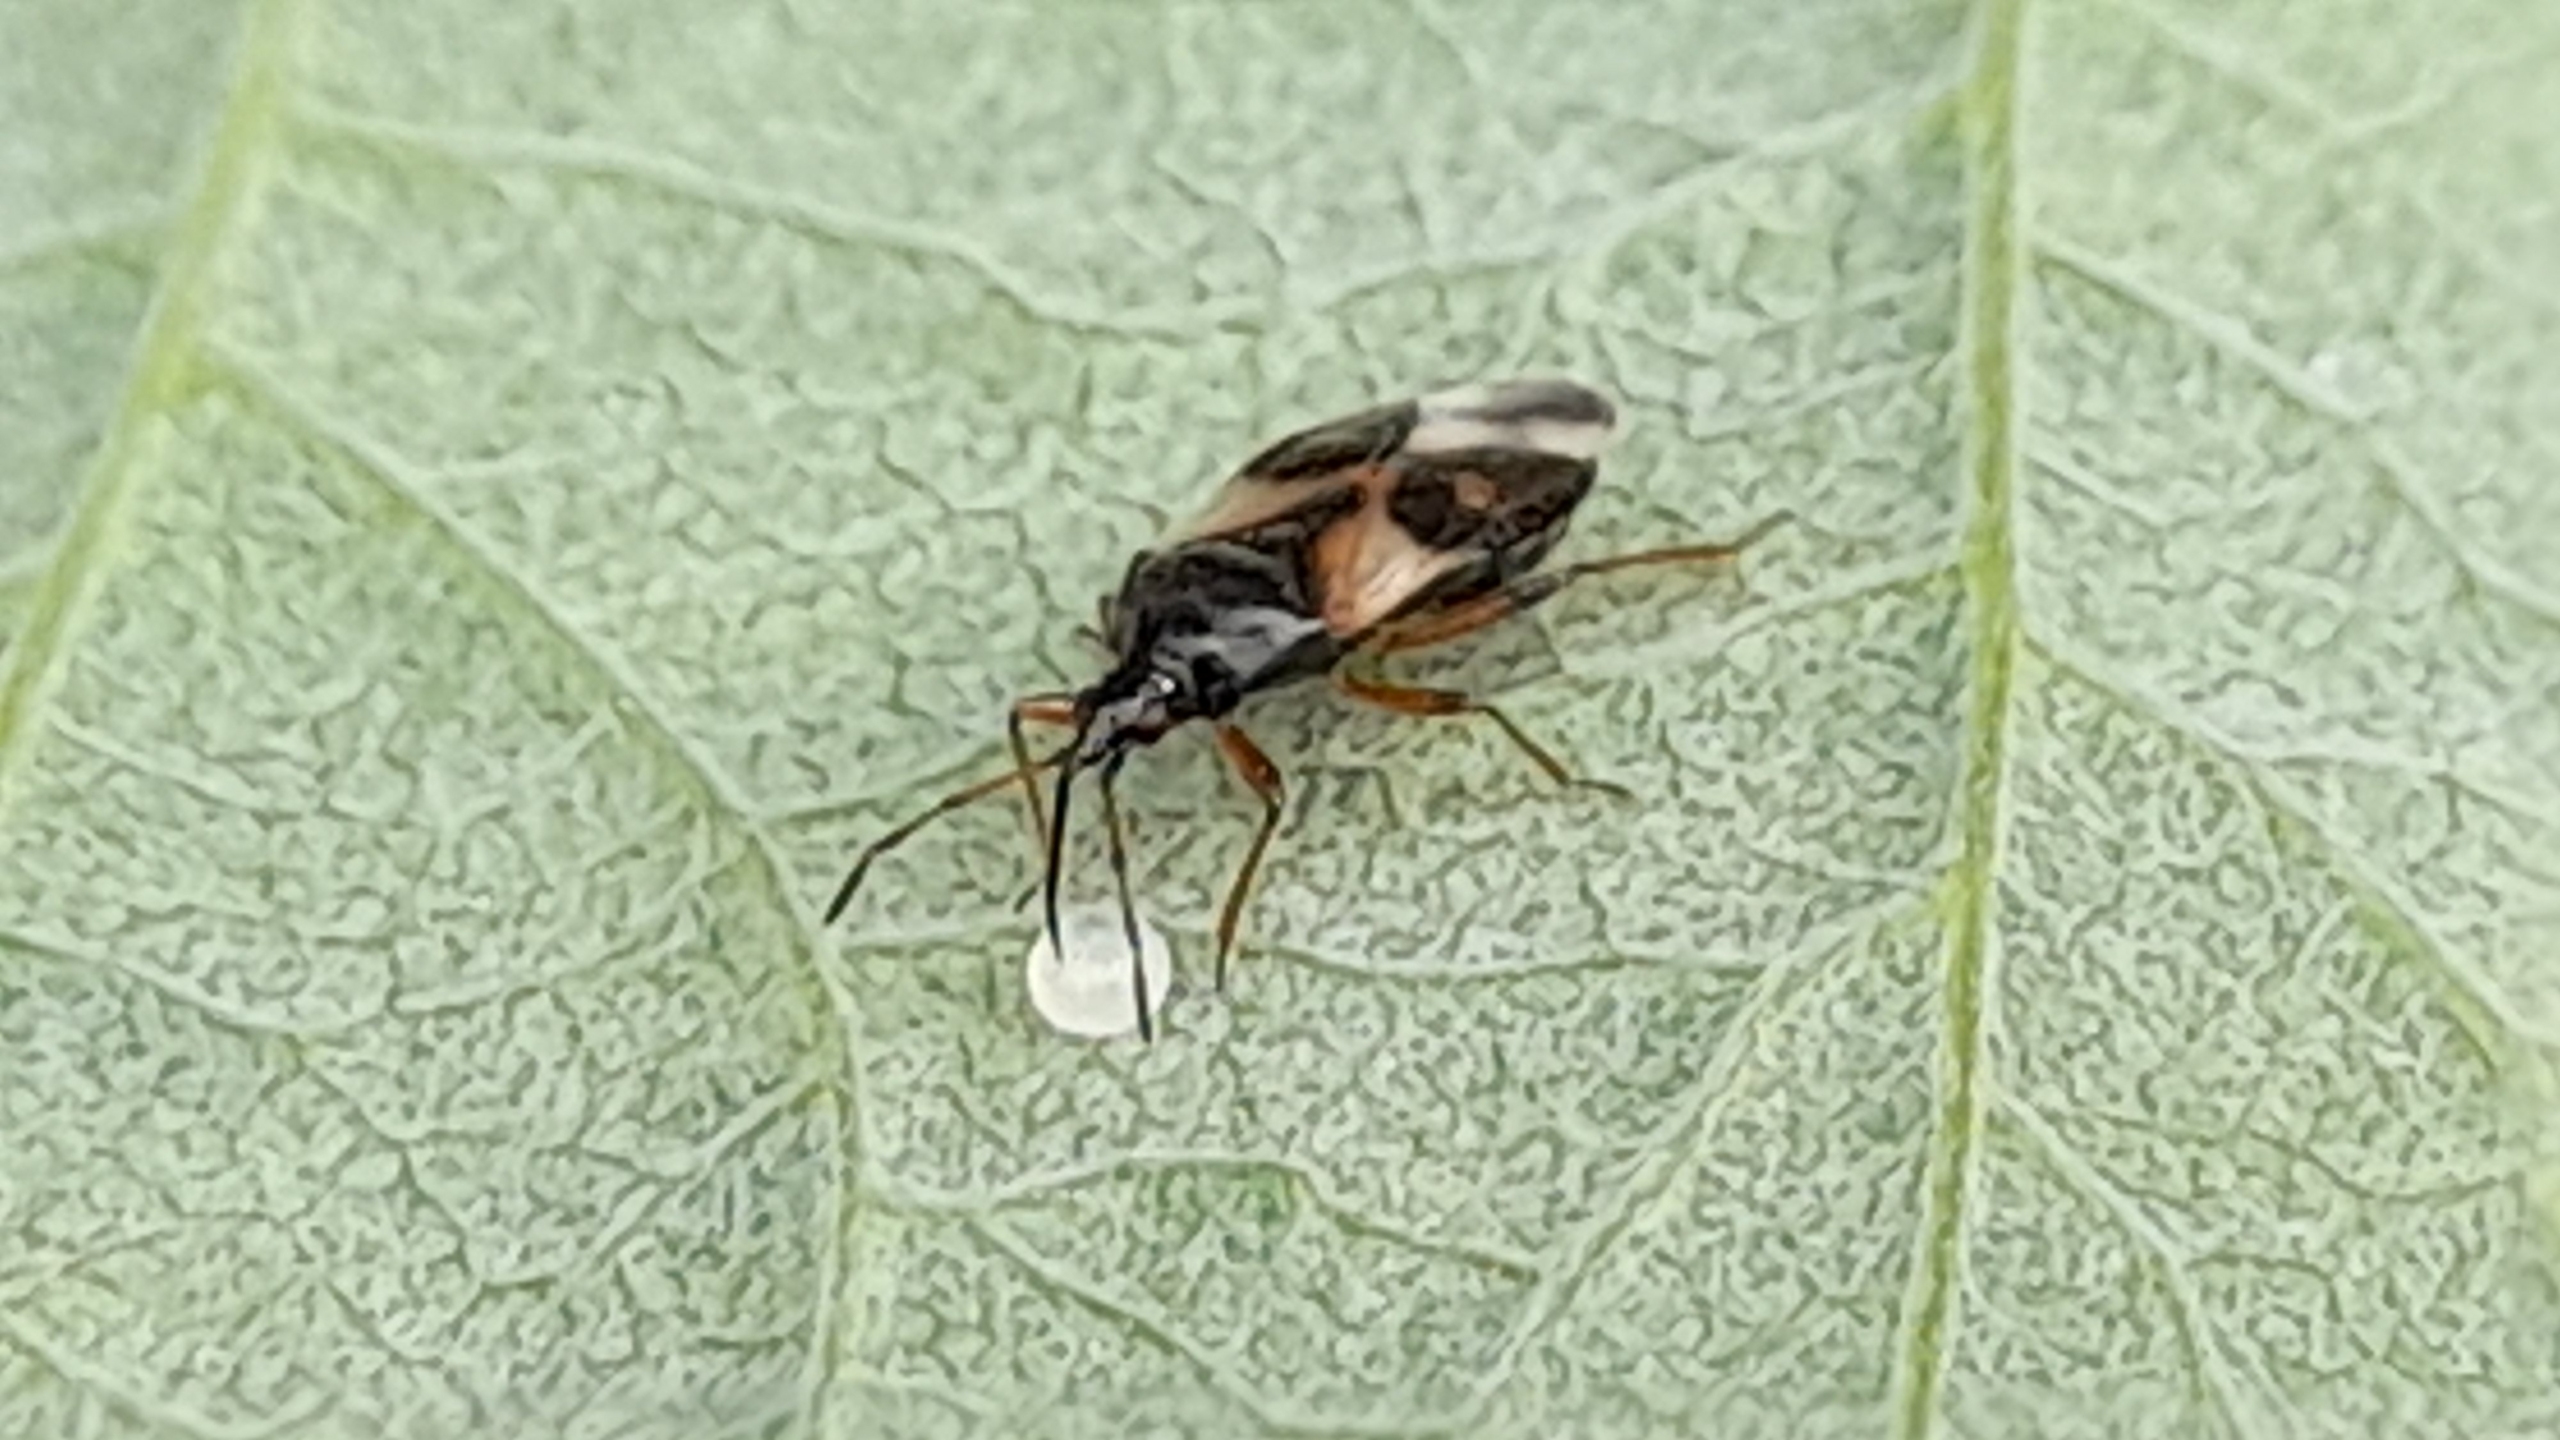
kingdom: Animalia
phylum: Arthropoda
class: Insecta
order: Hemiptera
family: Anthocoridae
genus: Anthocoris
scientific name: Anthocoris nemorum
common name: Skinnende bladlustæge
